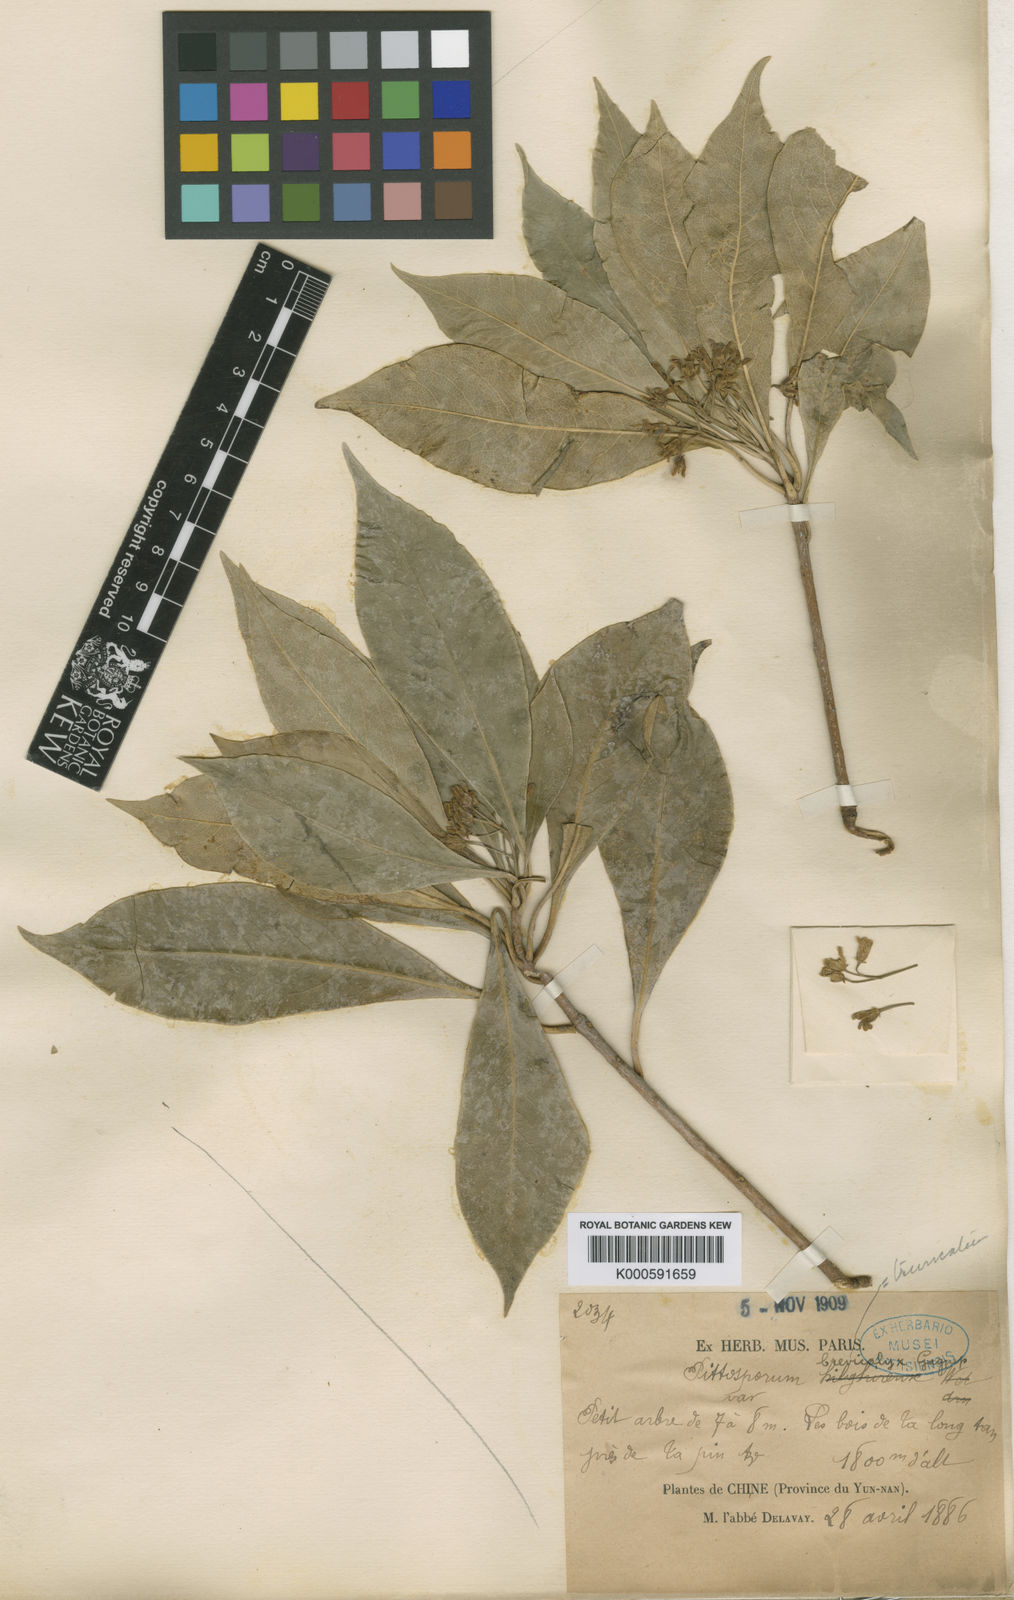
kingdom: Plantae
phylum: Tracheophyta
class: Magnoliopsida
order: Apiales
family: Pittosporaceae
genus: Pittosporum
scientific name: Pittosporum brevicalyx
